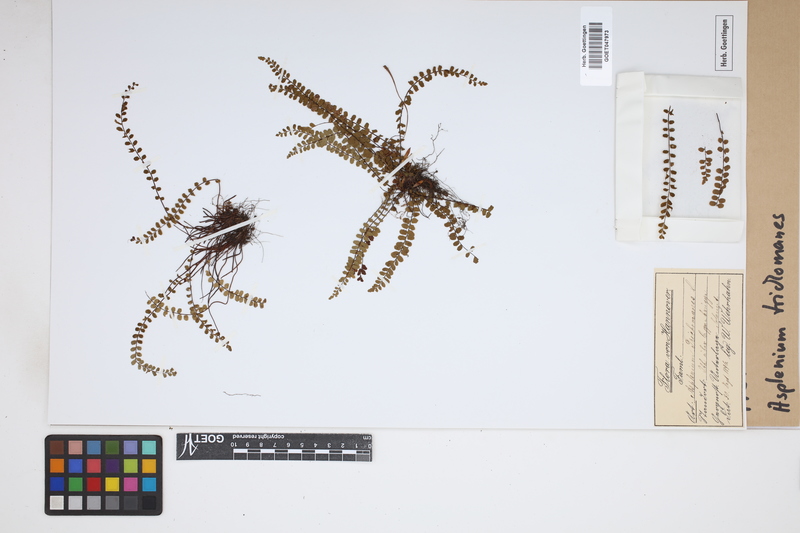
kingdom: Plantae
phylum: Tracheophyta
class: Polypodiopsida
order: Polypodiales
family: Aspleniaceae
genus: Asplenium
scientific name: Asplenium trichomanes
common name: Maidenhair spleenwort
